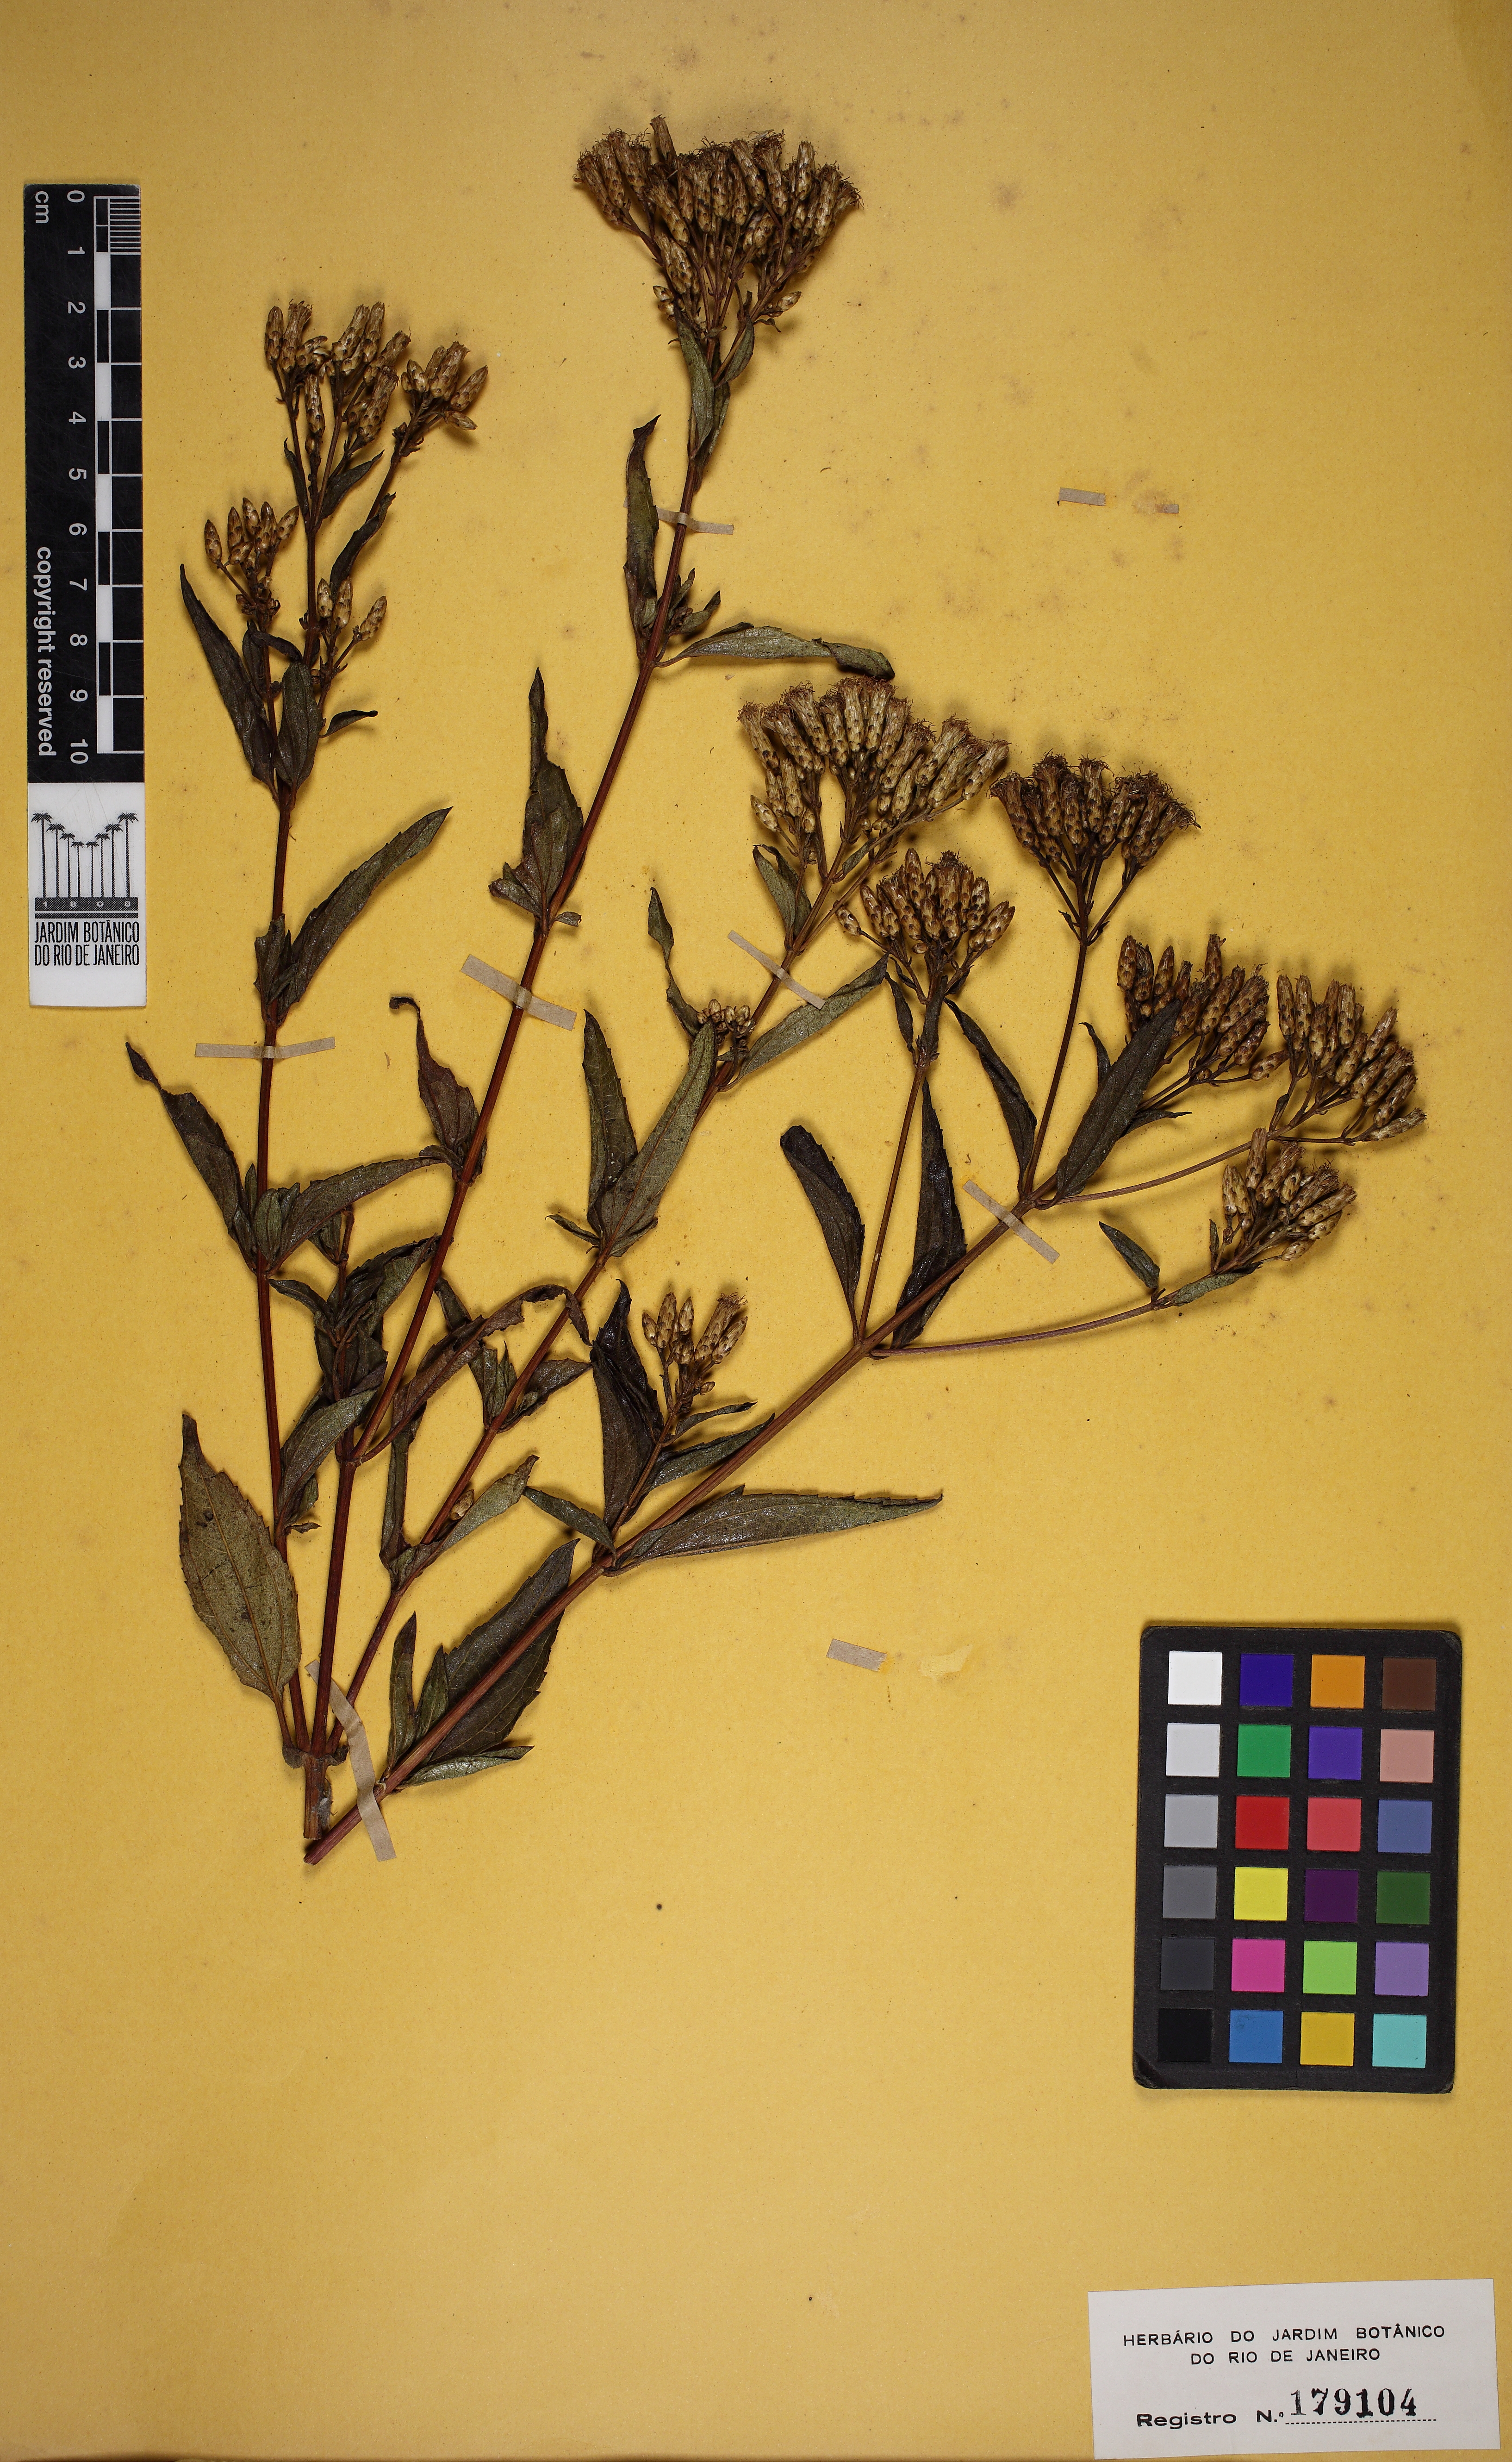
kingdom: Plantae
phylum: Tracheophyta
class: Magnoliopsida
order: Asterales
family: Asteraceae
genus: Chromolaena
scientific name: Chromolaena laevigata
